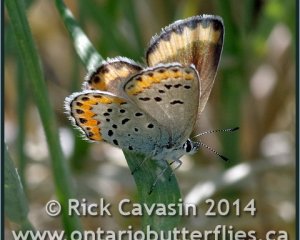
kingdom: Animalia
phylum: Arthropoda
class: Insecta
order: Lepidoptera
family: Lycaenidae
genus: Lycaeides
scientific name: Lycaeides melissa
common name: Melissa Blue
